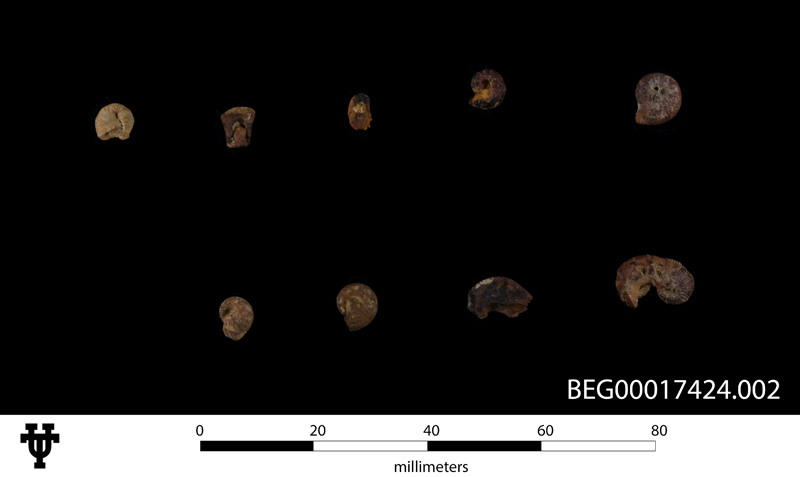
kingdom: Animalia
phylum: Mollusca
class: Cephalopoda
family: Ancyloceratidae
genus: Tropaeum
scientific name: Tropaeum hillsi
